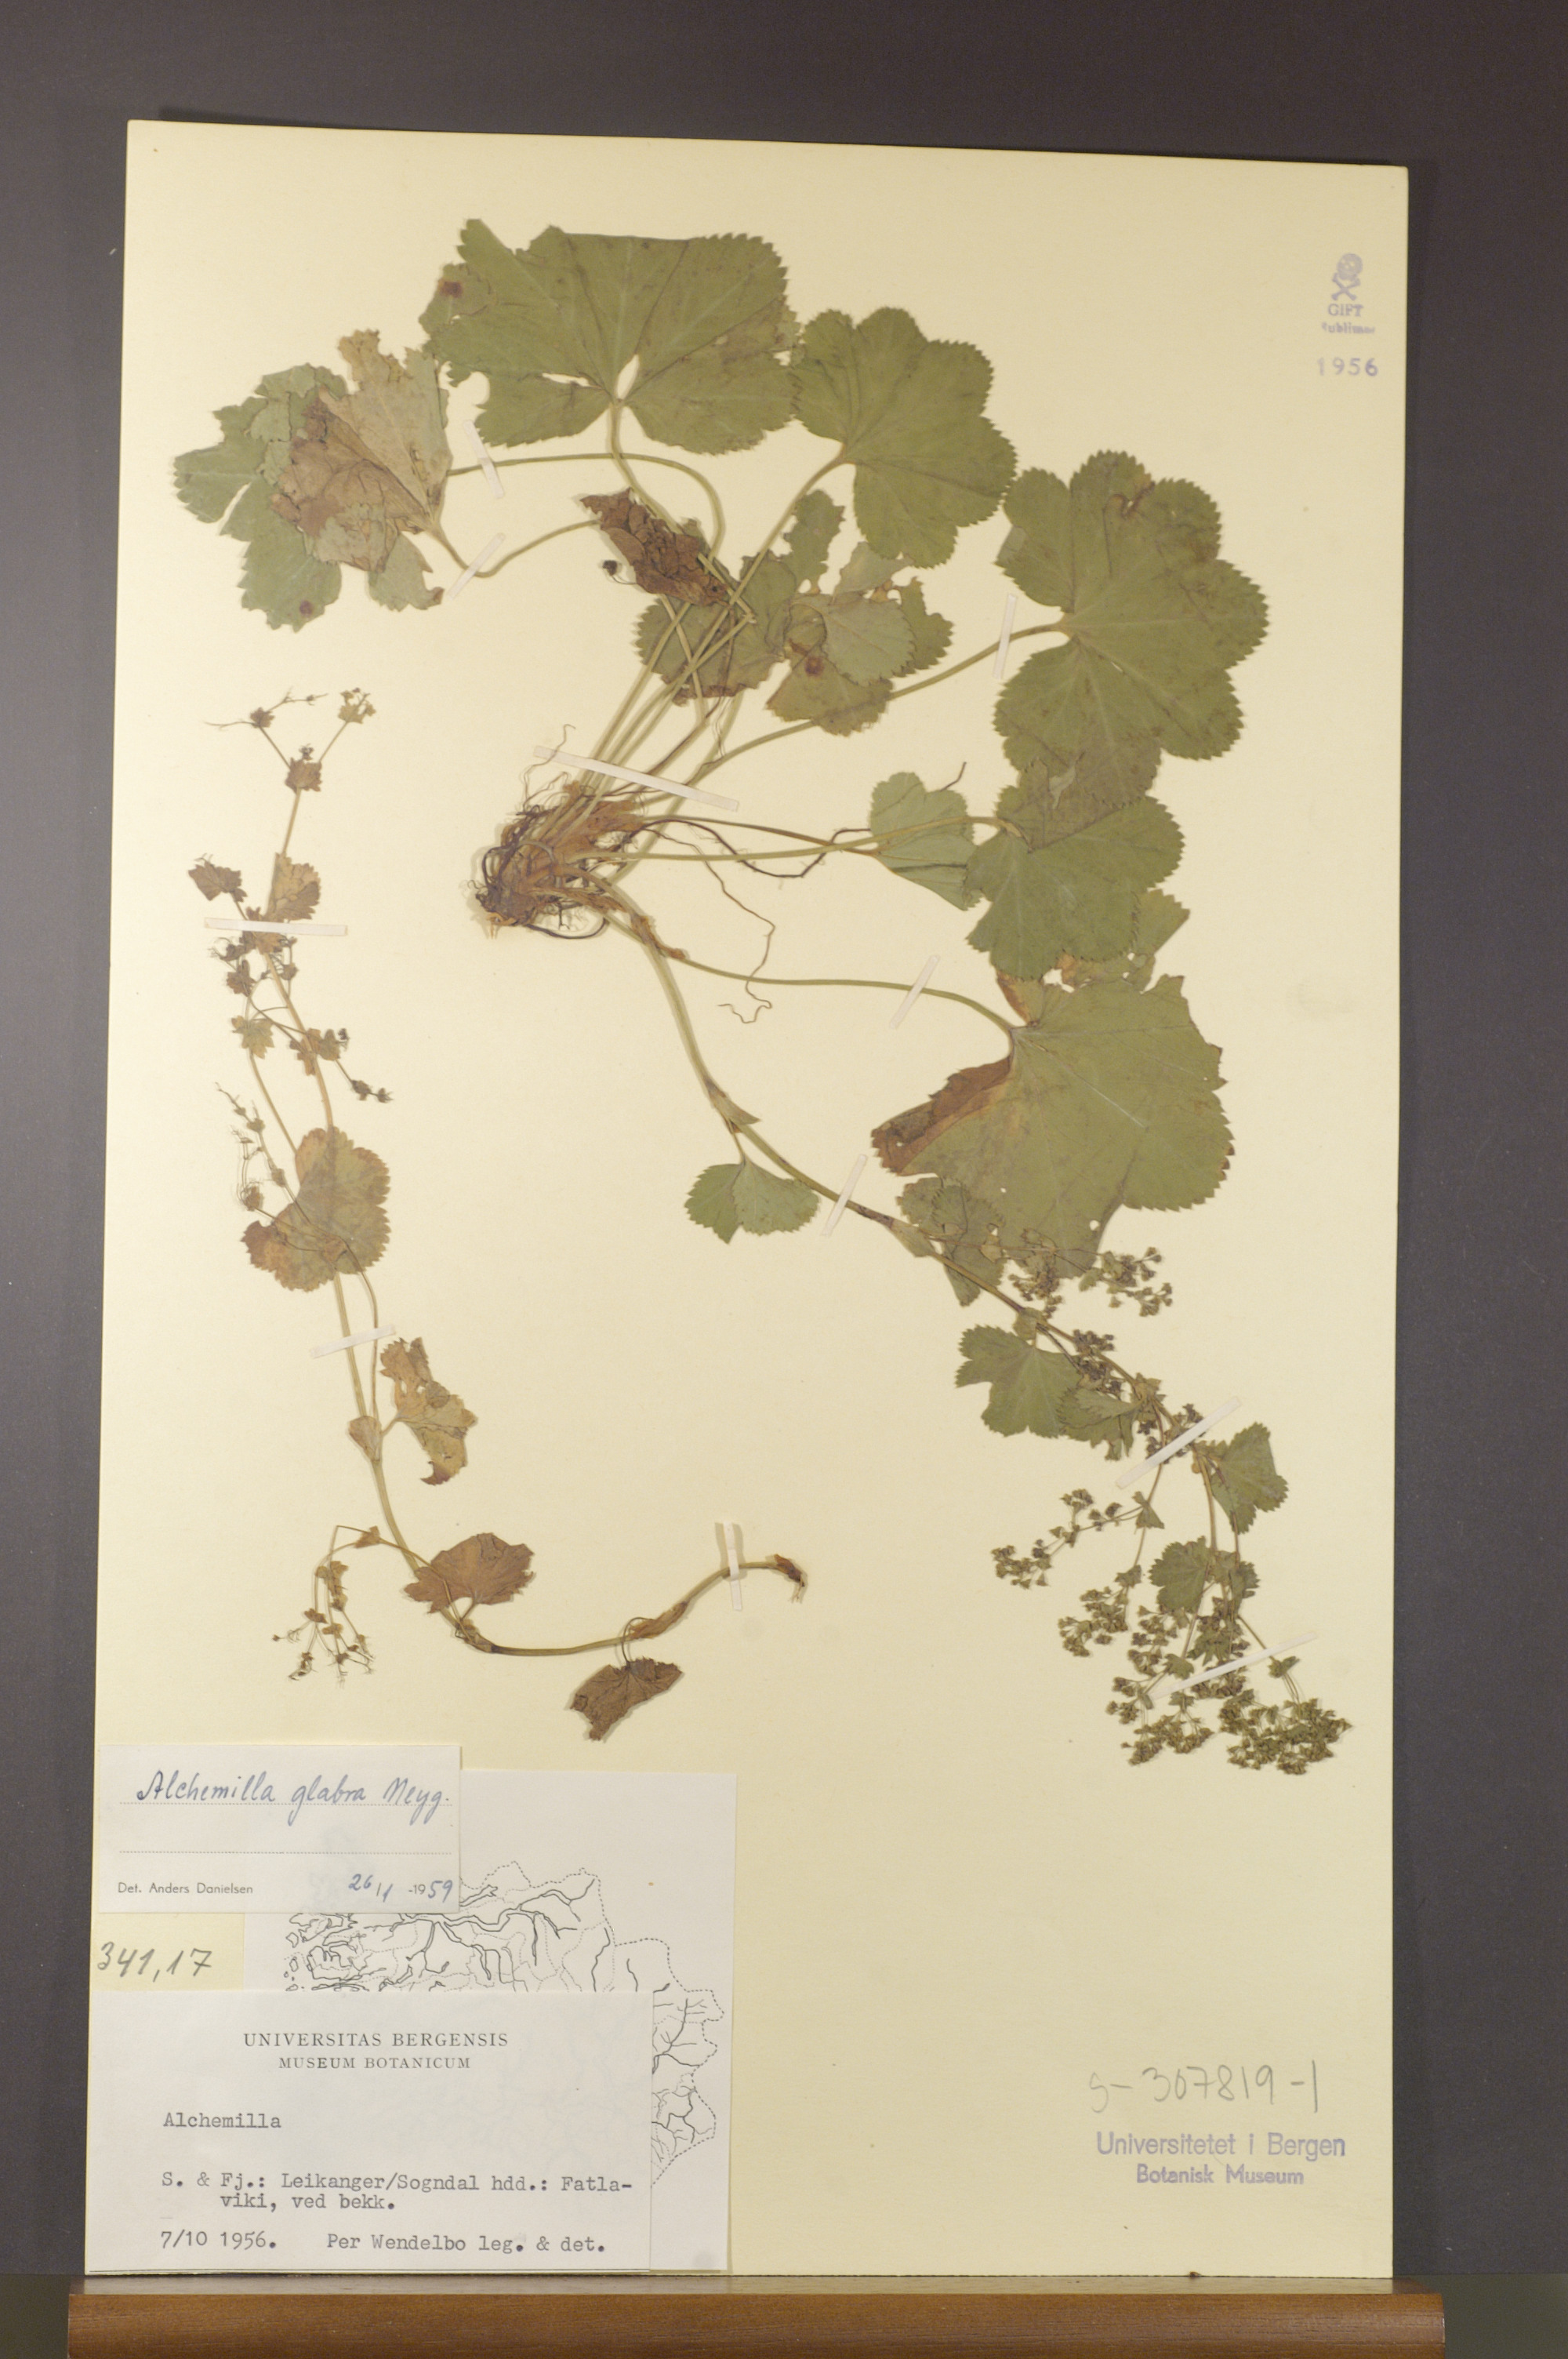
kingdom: Plantae
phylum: Tracheophyta
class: Magnoliopsida
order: Rosales
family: Rosaceae
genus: Alchemilla
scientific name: Alchemilla glabra
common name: Smooth lady's-mantle
